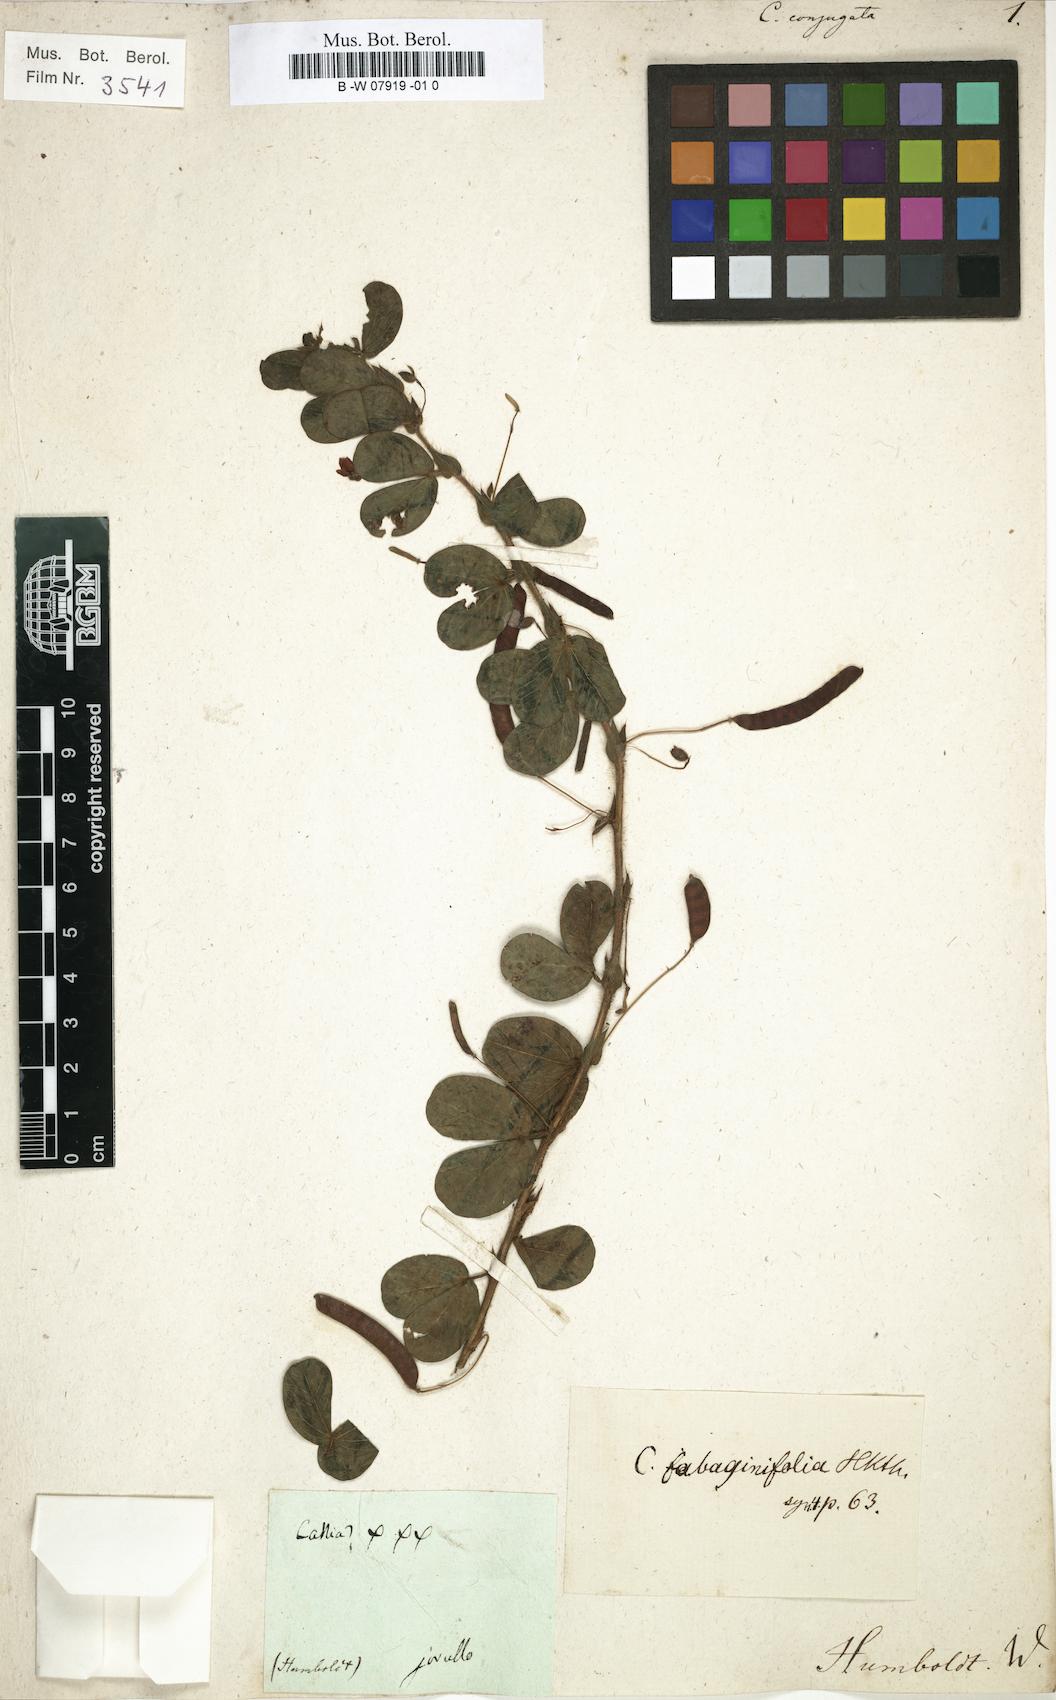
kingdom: Plantae
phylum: Tracheophyta
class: Magnoliopsida
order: Fabales
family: Fabaceae
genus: Senna
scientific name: Senna brongniartii
